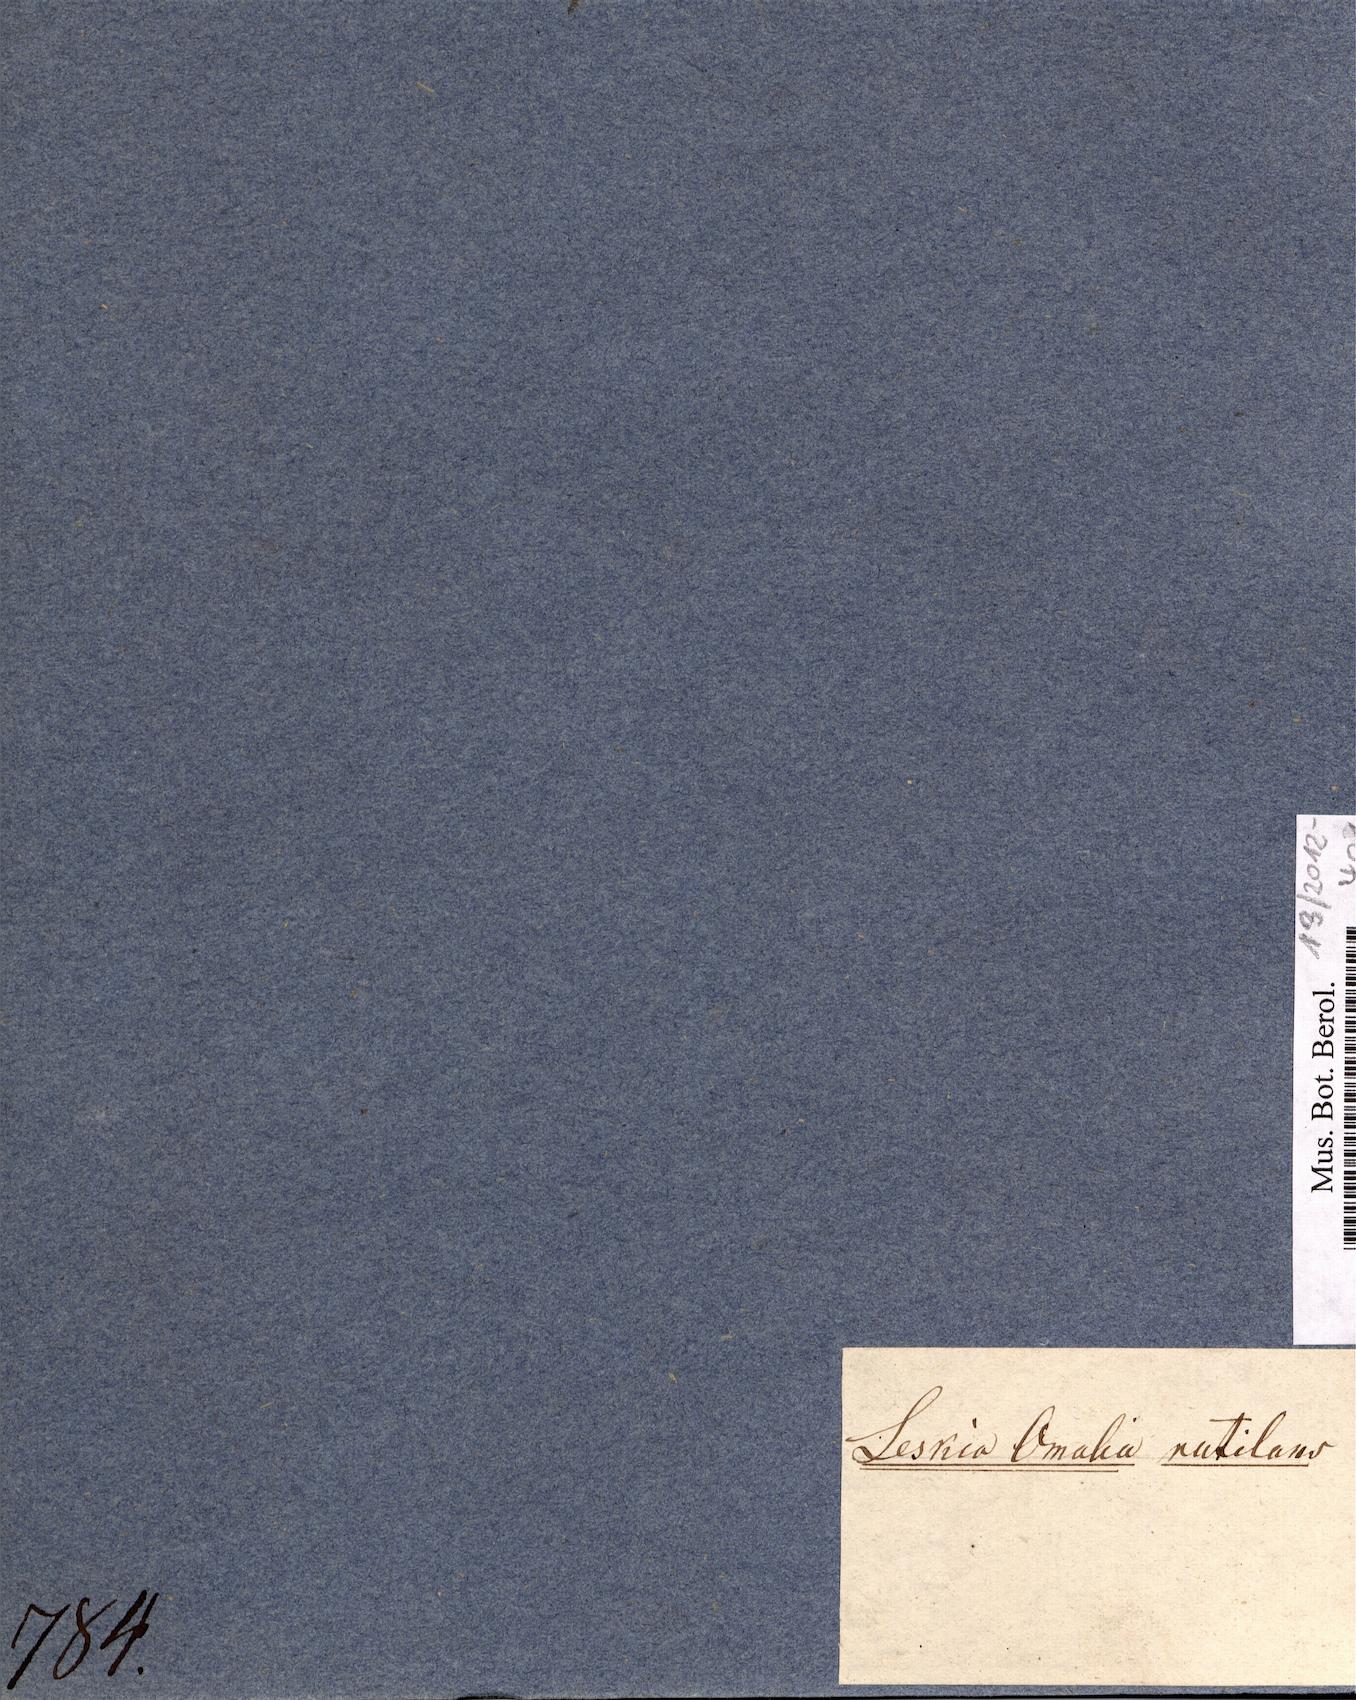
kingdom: Plantae
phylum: Bryophyta
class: Bryopsida
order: Hypnales
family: Leskeaceae
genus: Leskea
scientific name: Leskea
